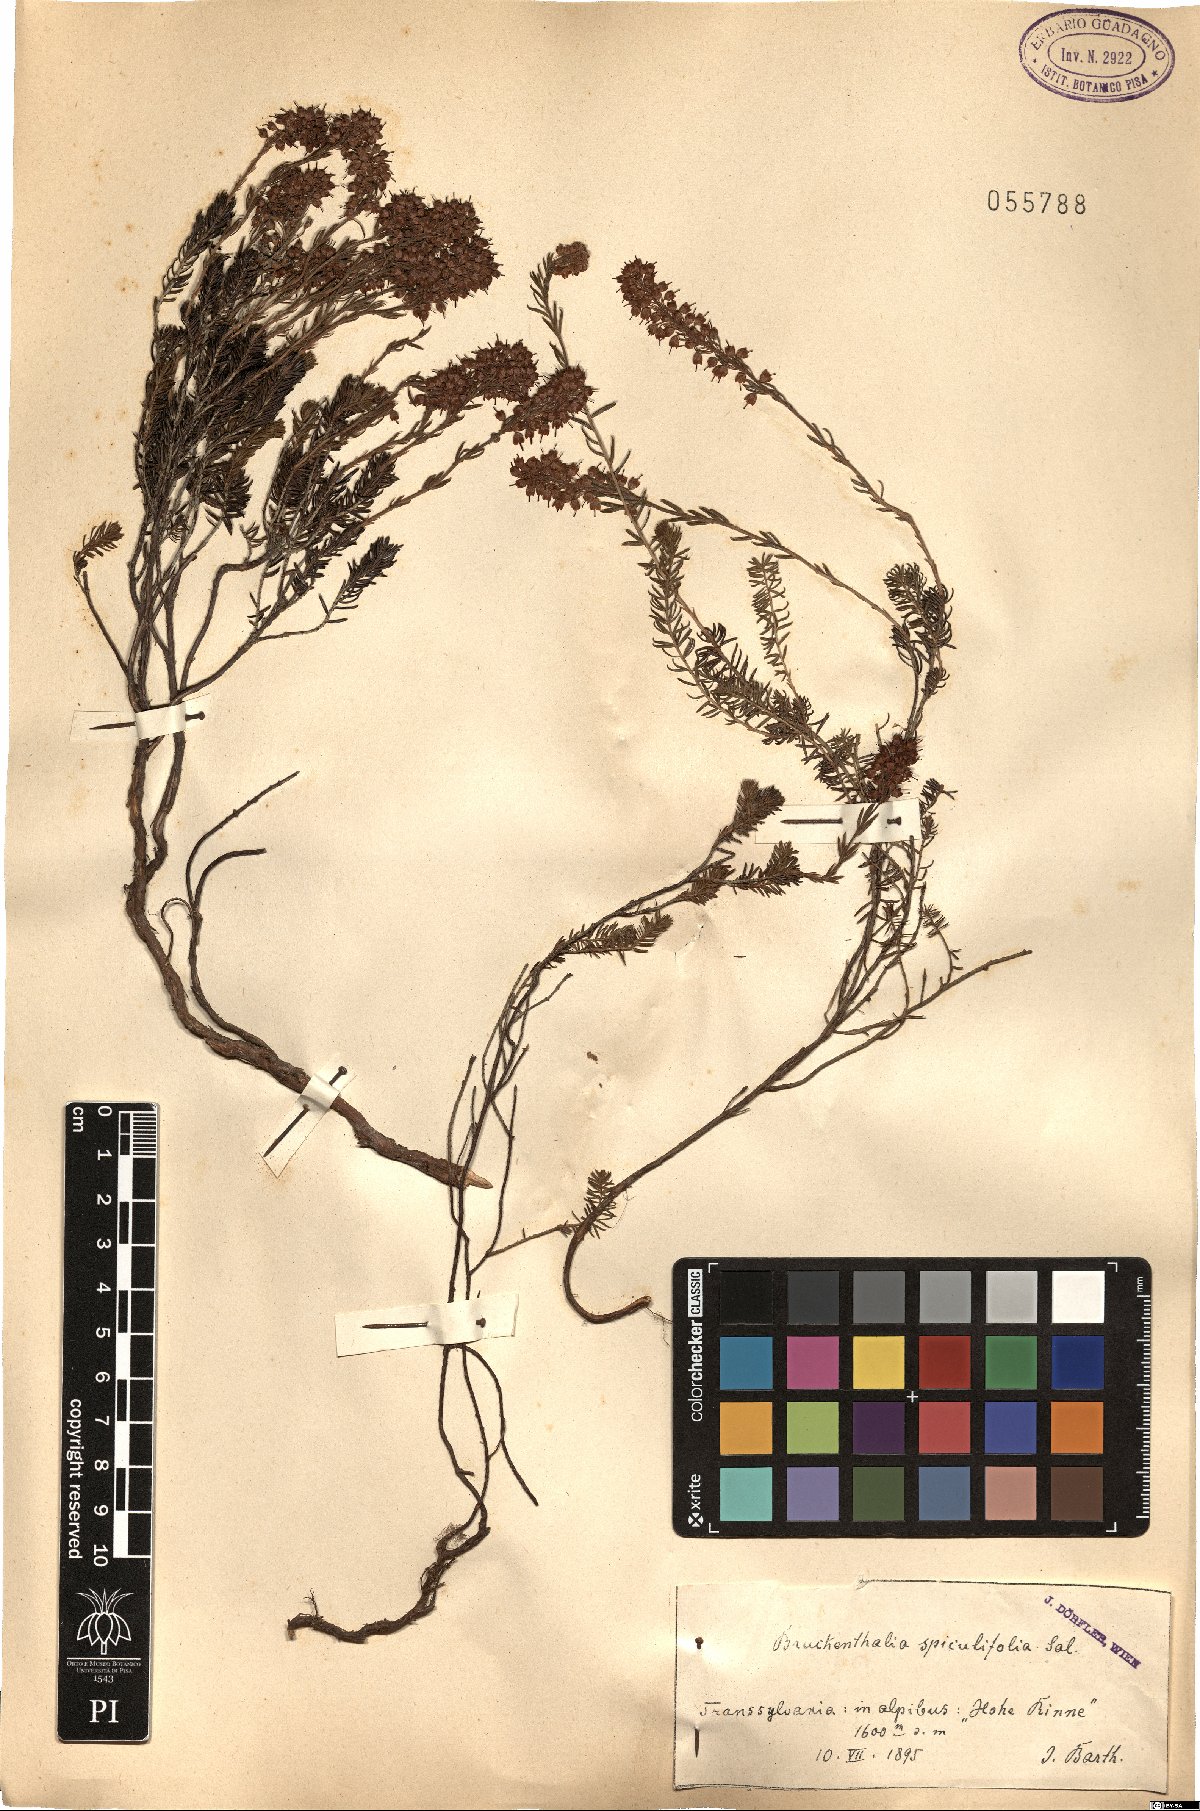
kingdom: Plantae
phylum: Tracheophyta
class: Magnoliopsida
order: Ericales
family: Ericaceae
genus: Erica
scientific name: Erica spiculifolia
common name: Spike heath
